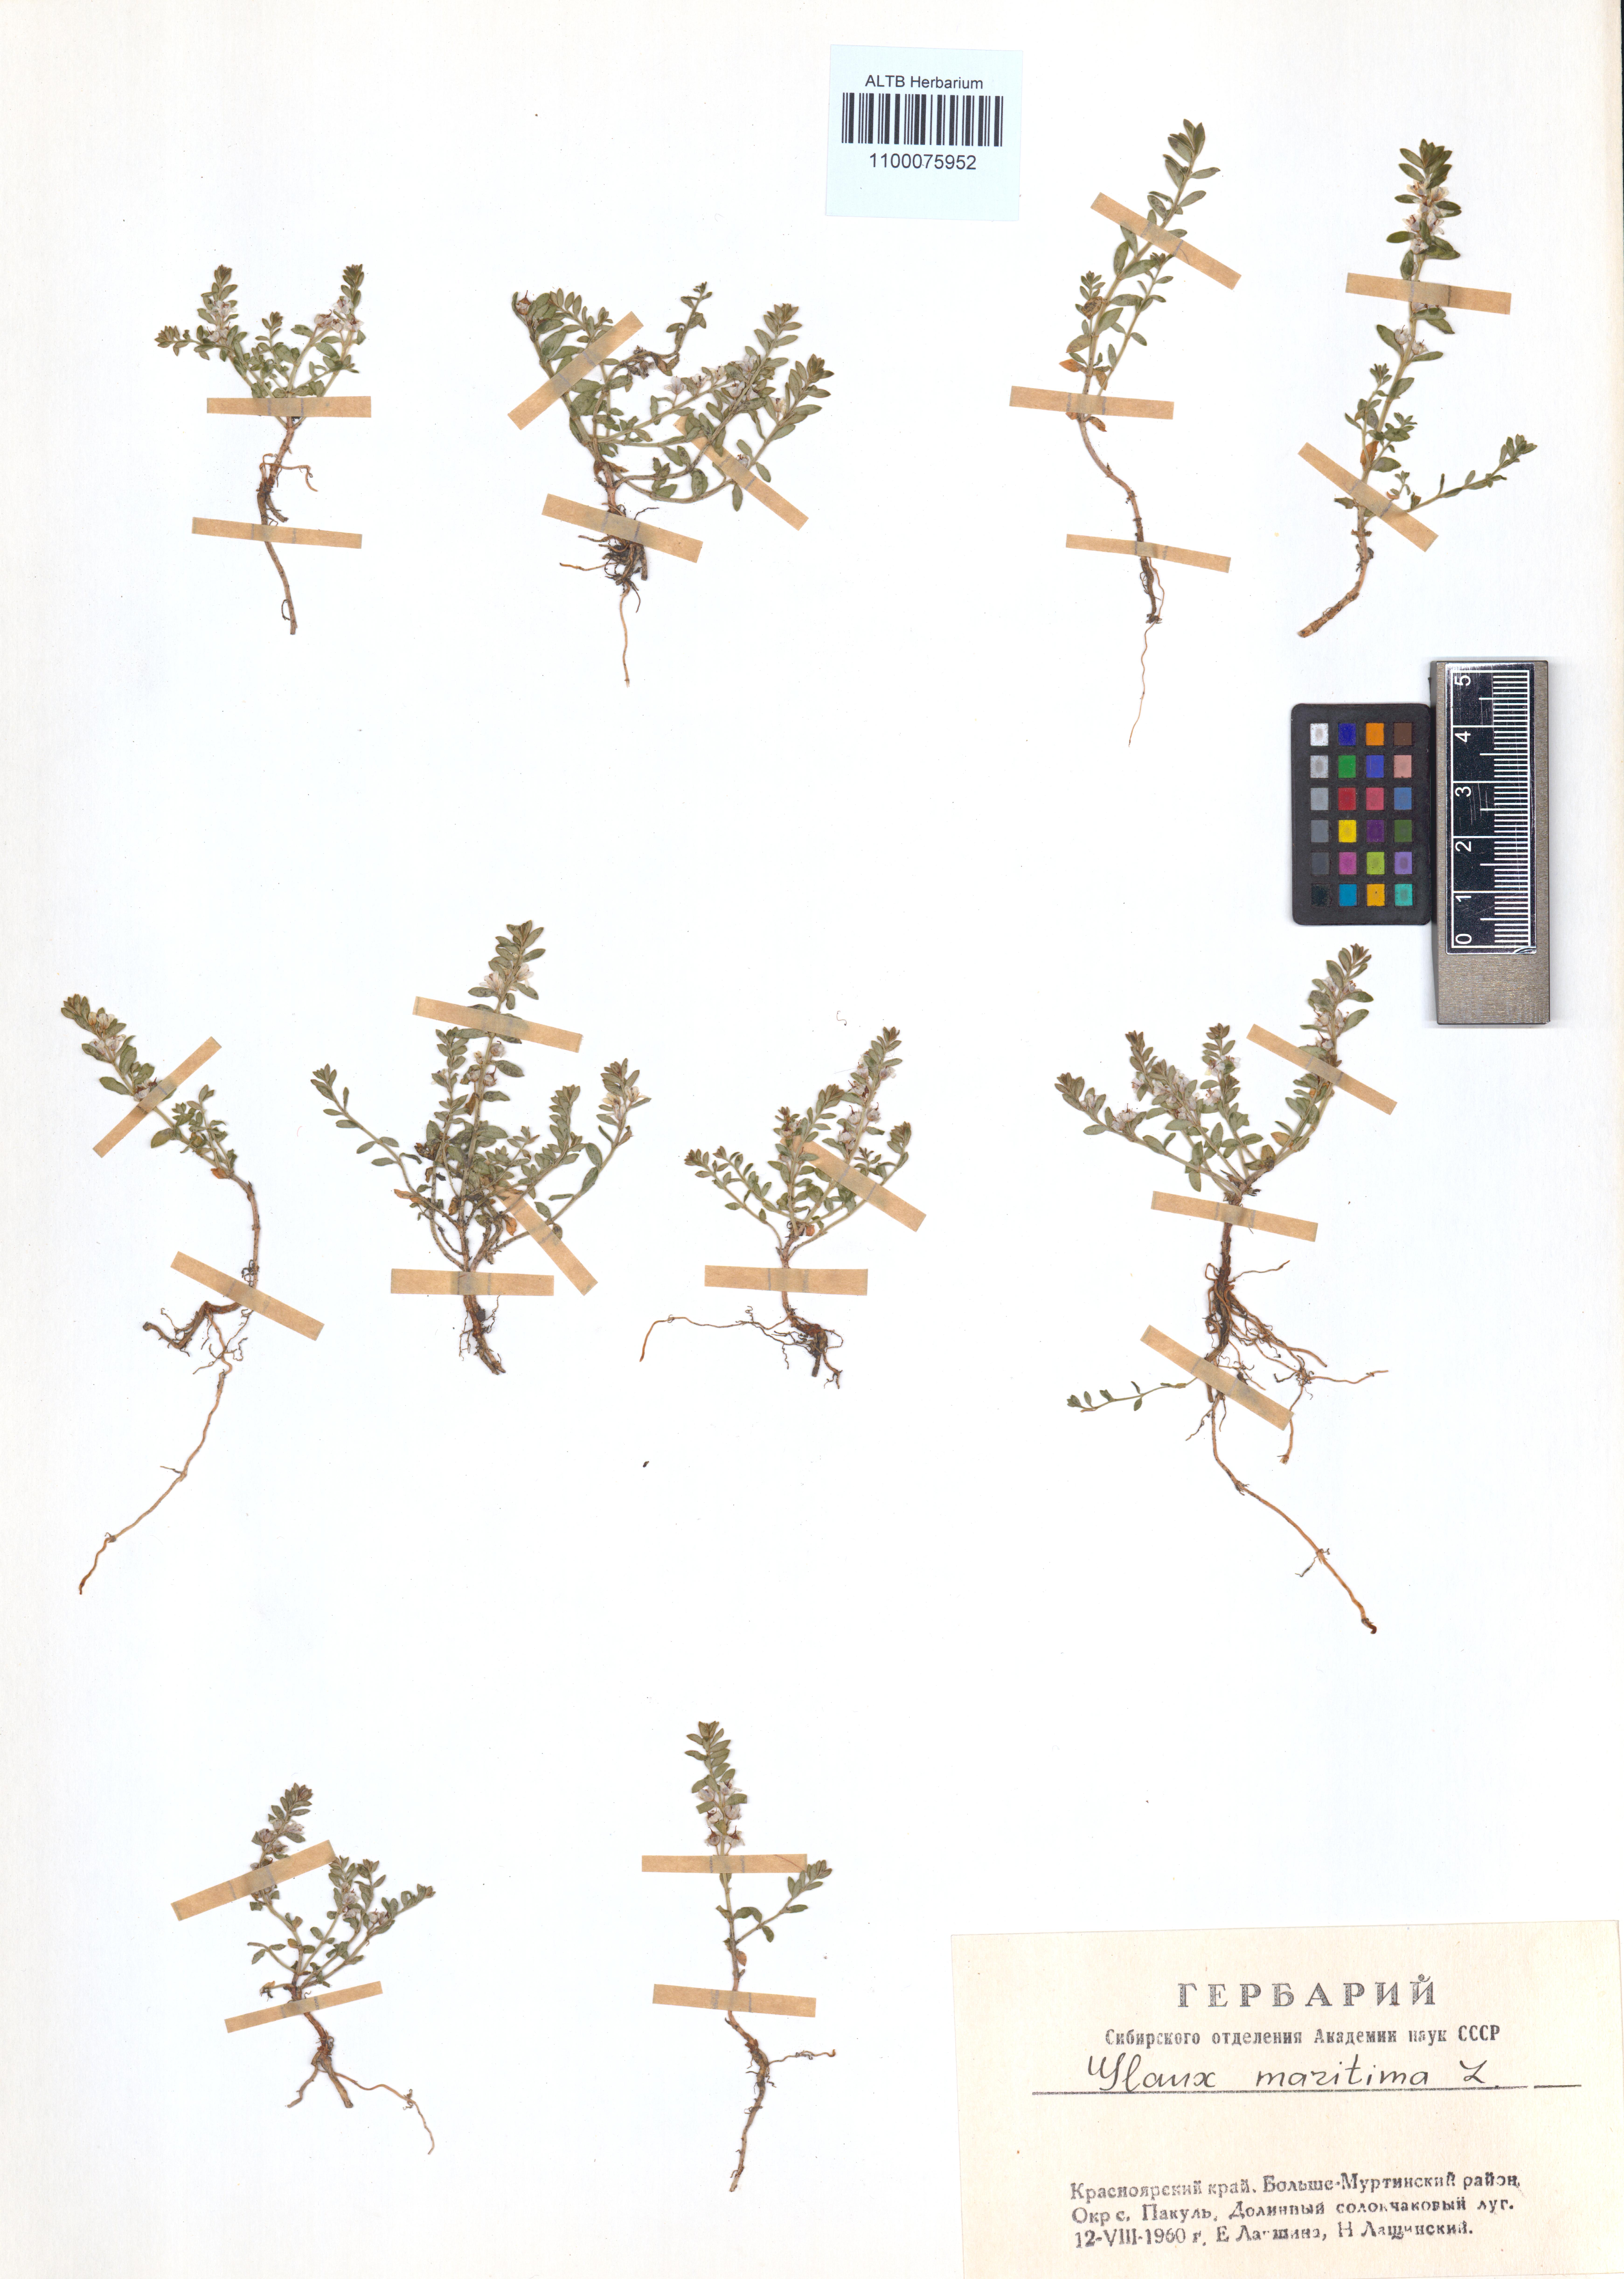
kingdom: Plantae
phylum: Tracheophyta
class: Magnoliopsida
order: Ericales
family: Primulaceae
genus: Lysimachia
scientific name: Lysimachia maritima
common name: Sea milkwort
